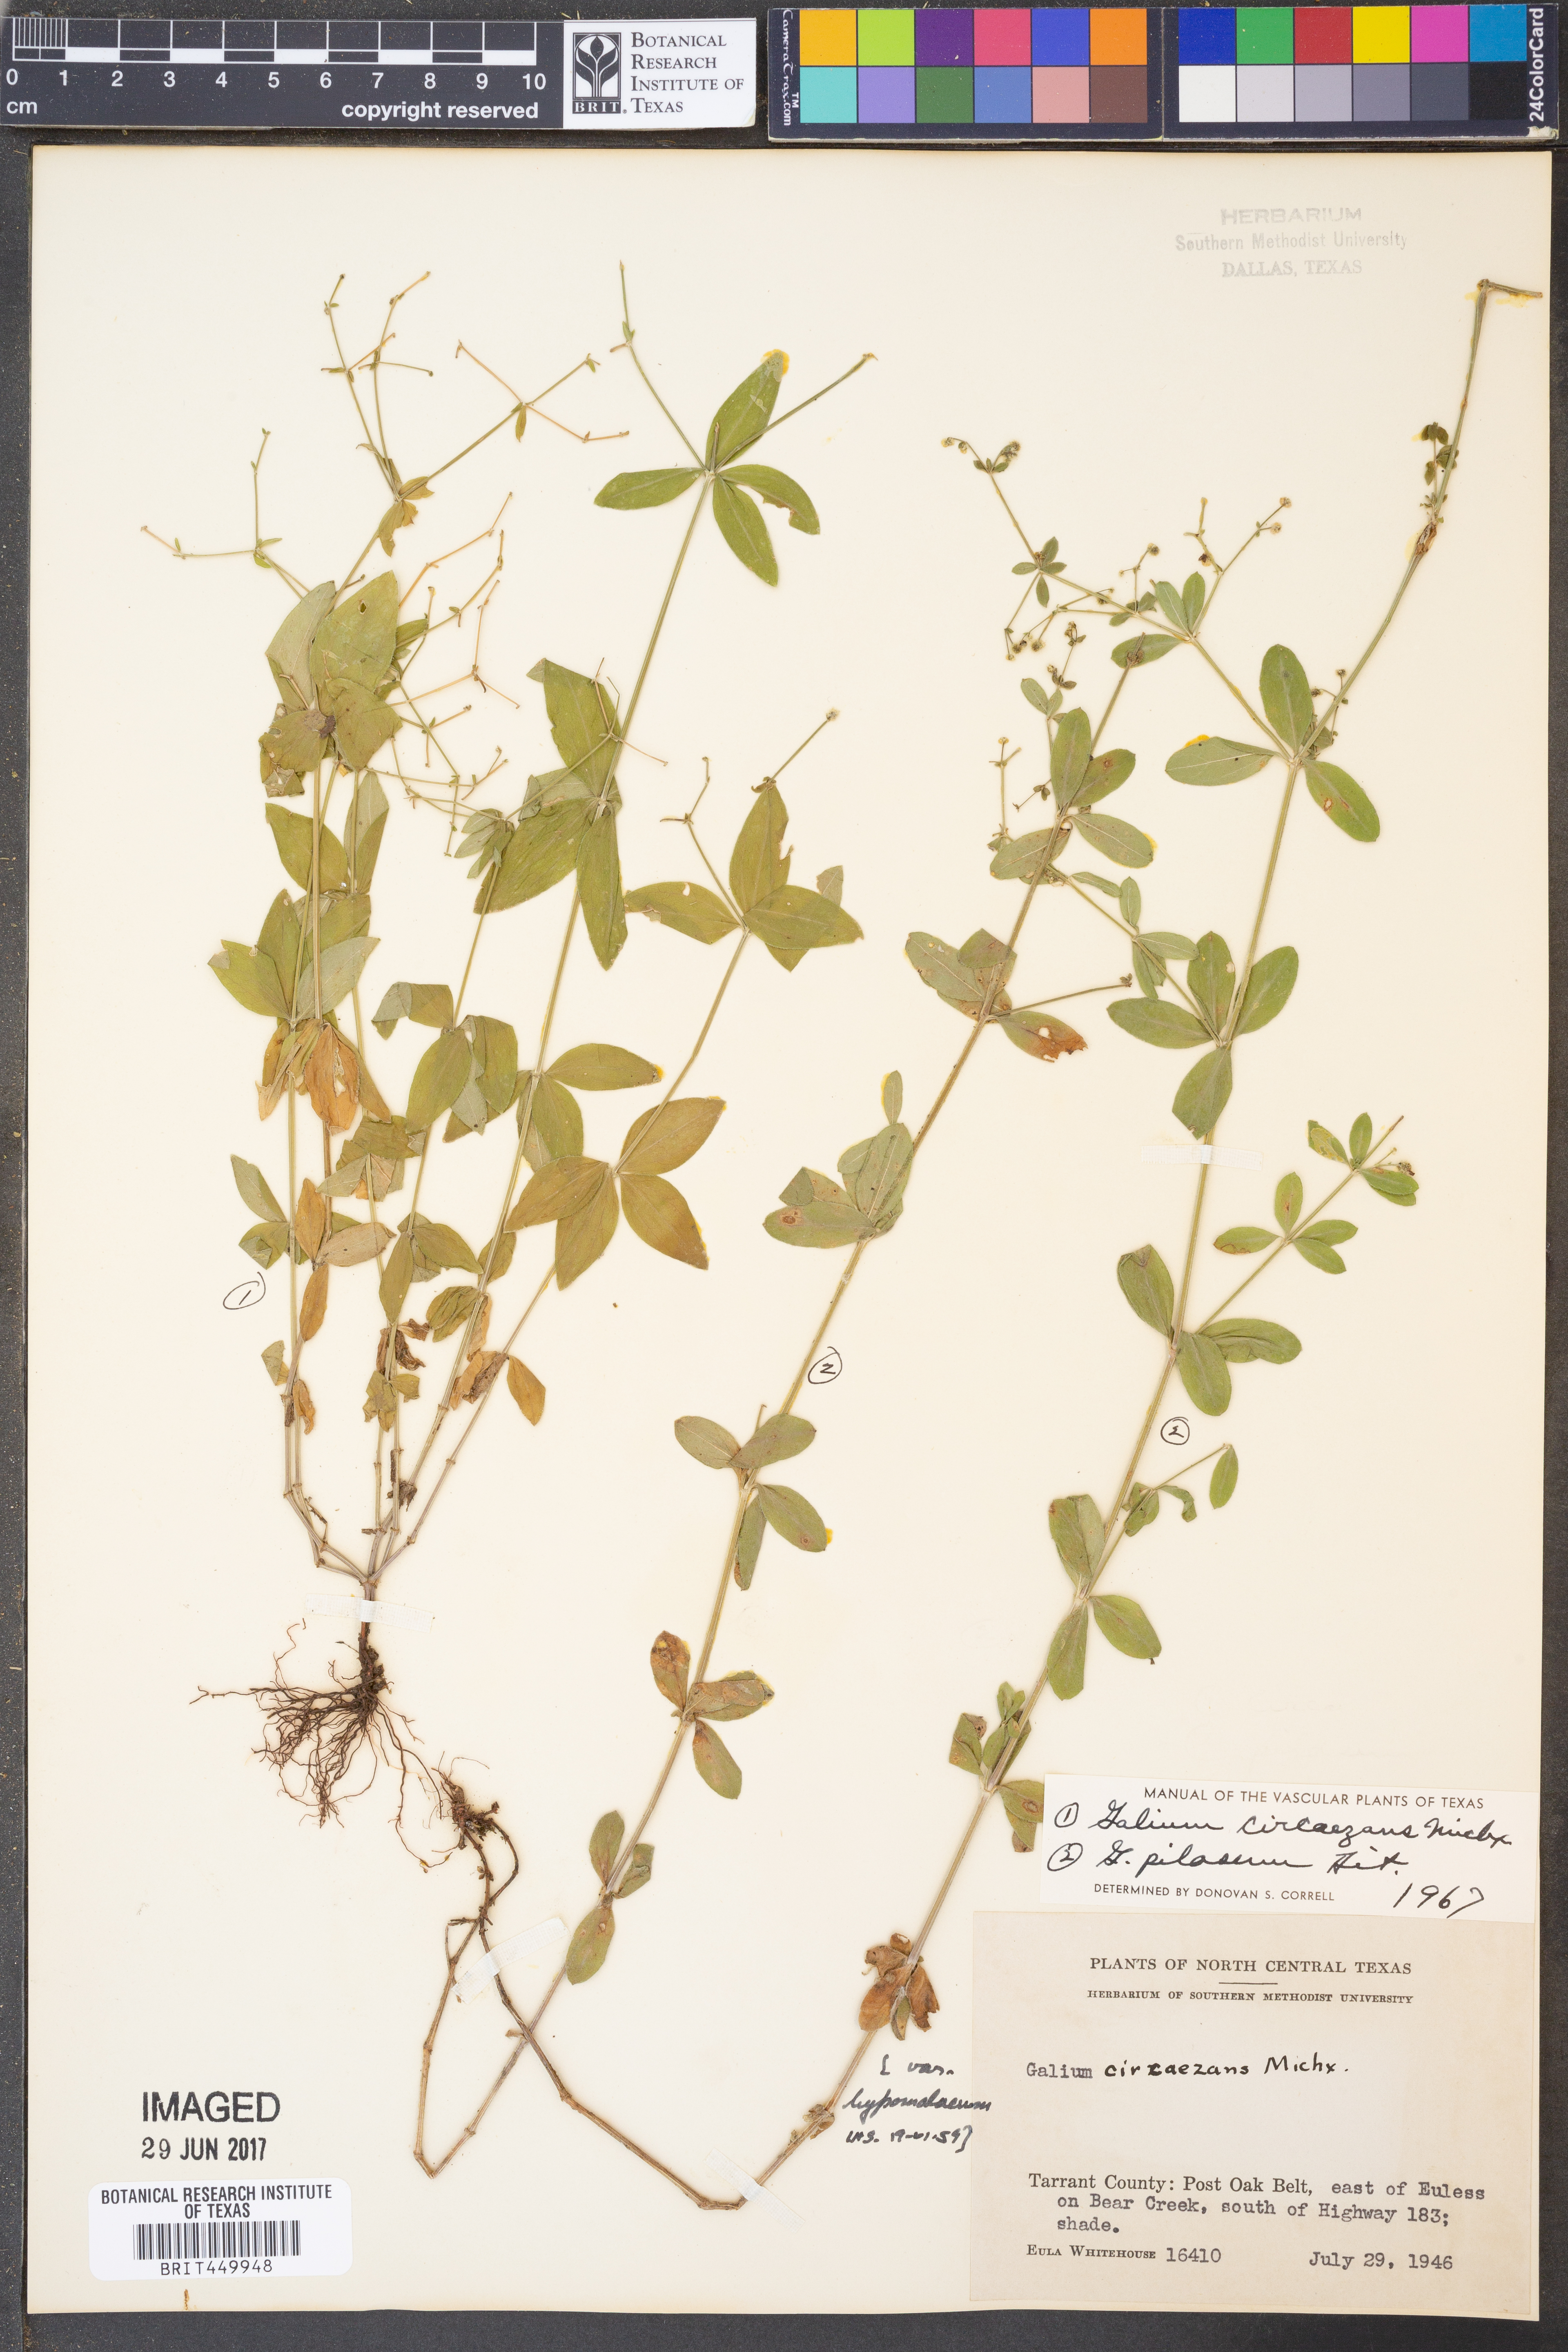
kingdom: Plantae
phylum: Tracheophyta
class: Magnoliopsida
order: Gentianales
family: Rubiaceae
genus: Galium
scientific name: Galium circaezans
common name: Forest bedstraw
